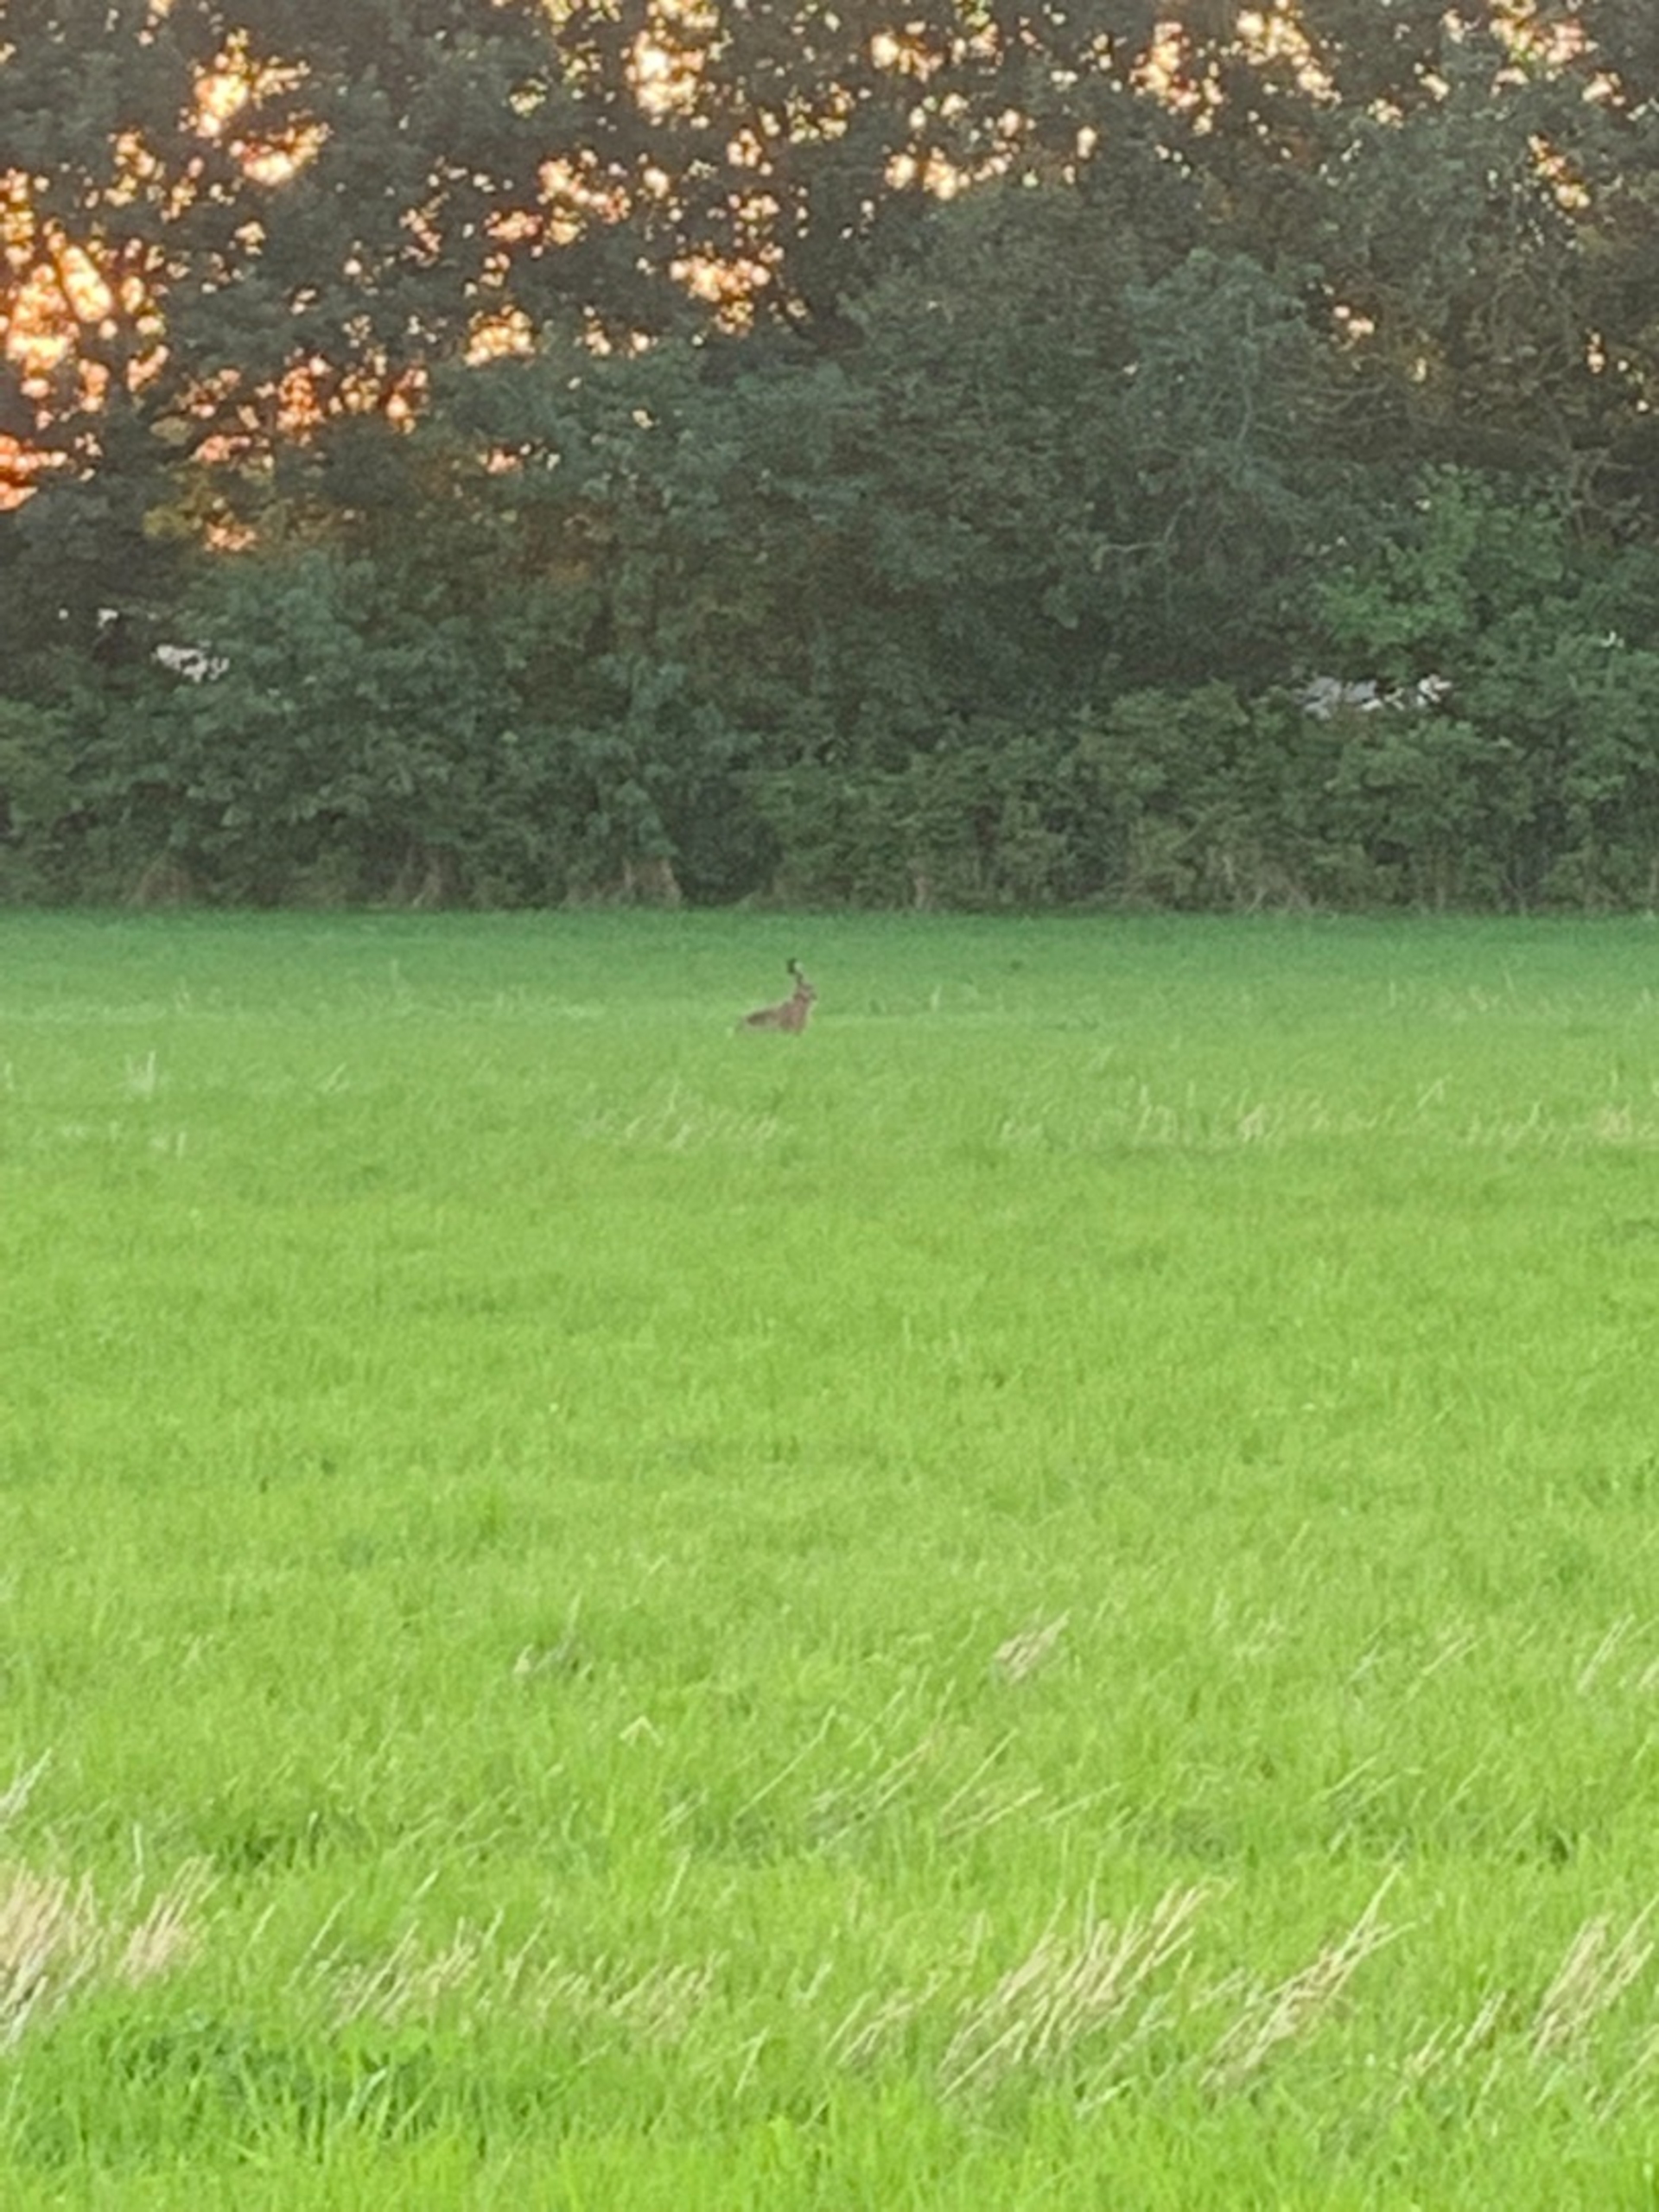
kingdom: Animalia
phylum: Chordata
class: Mammalia
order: Lagomorpha
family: Leporidae
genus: Lepus
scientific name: Lepus europaeus
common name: Hare
